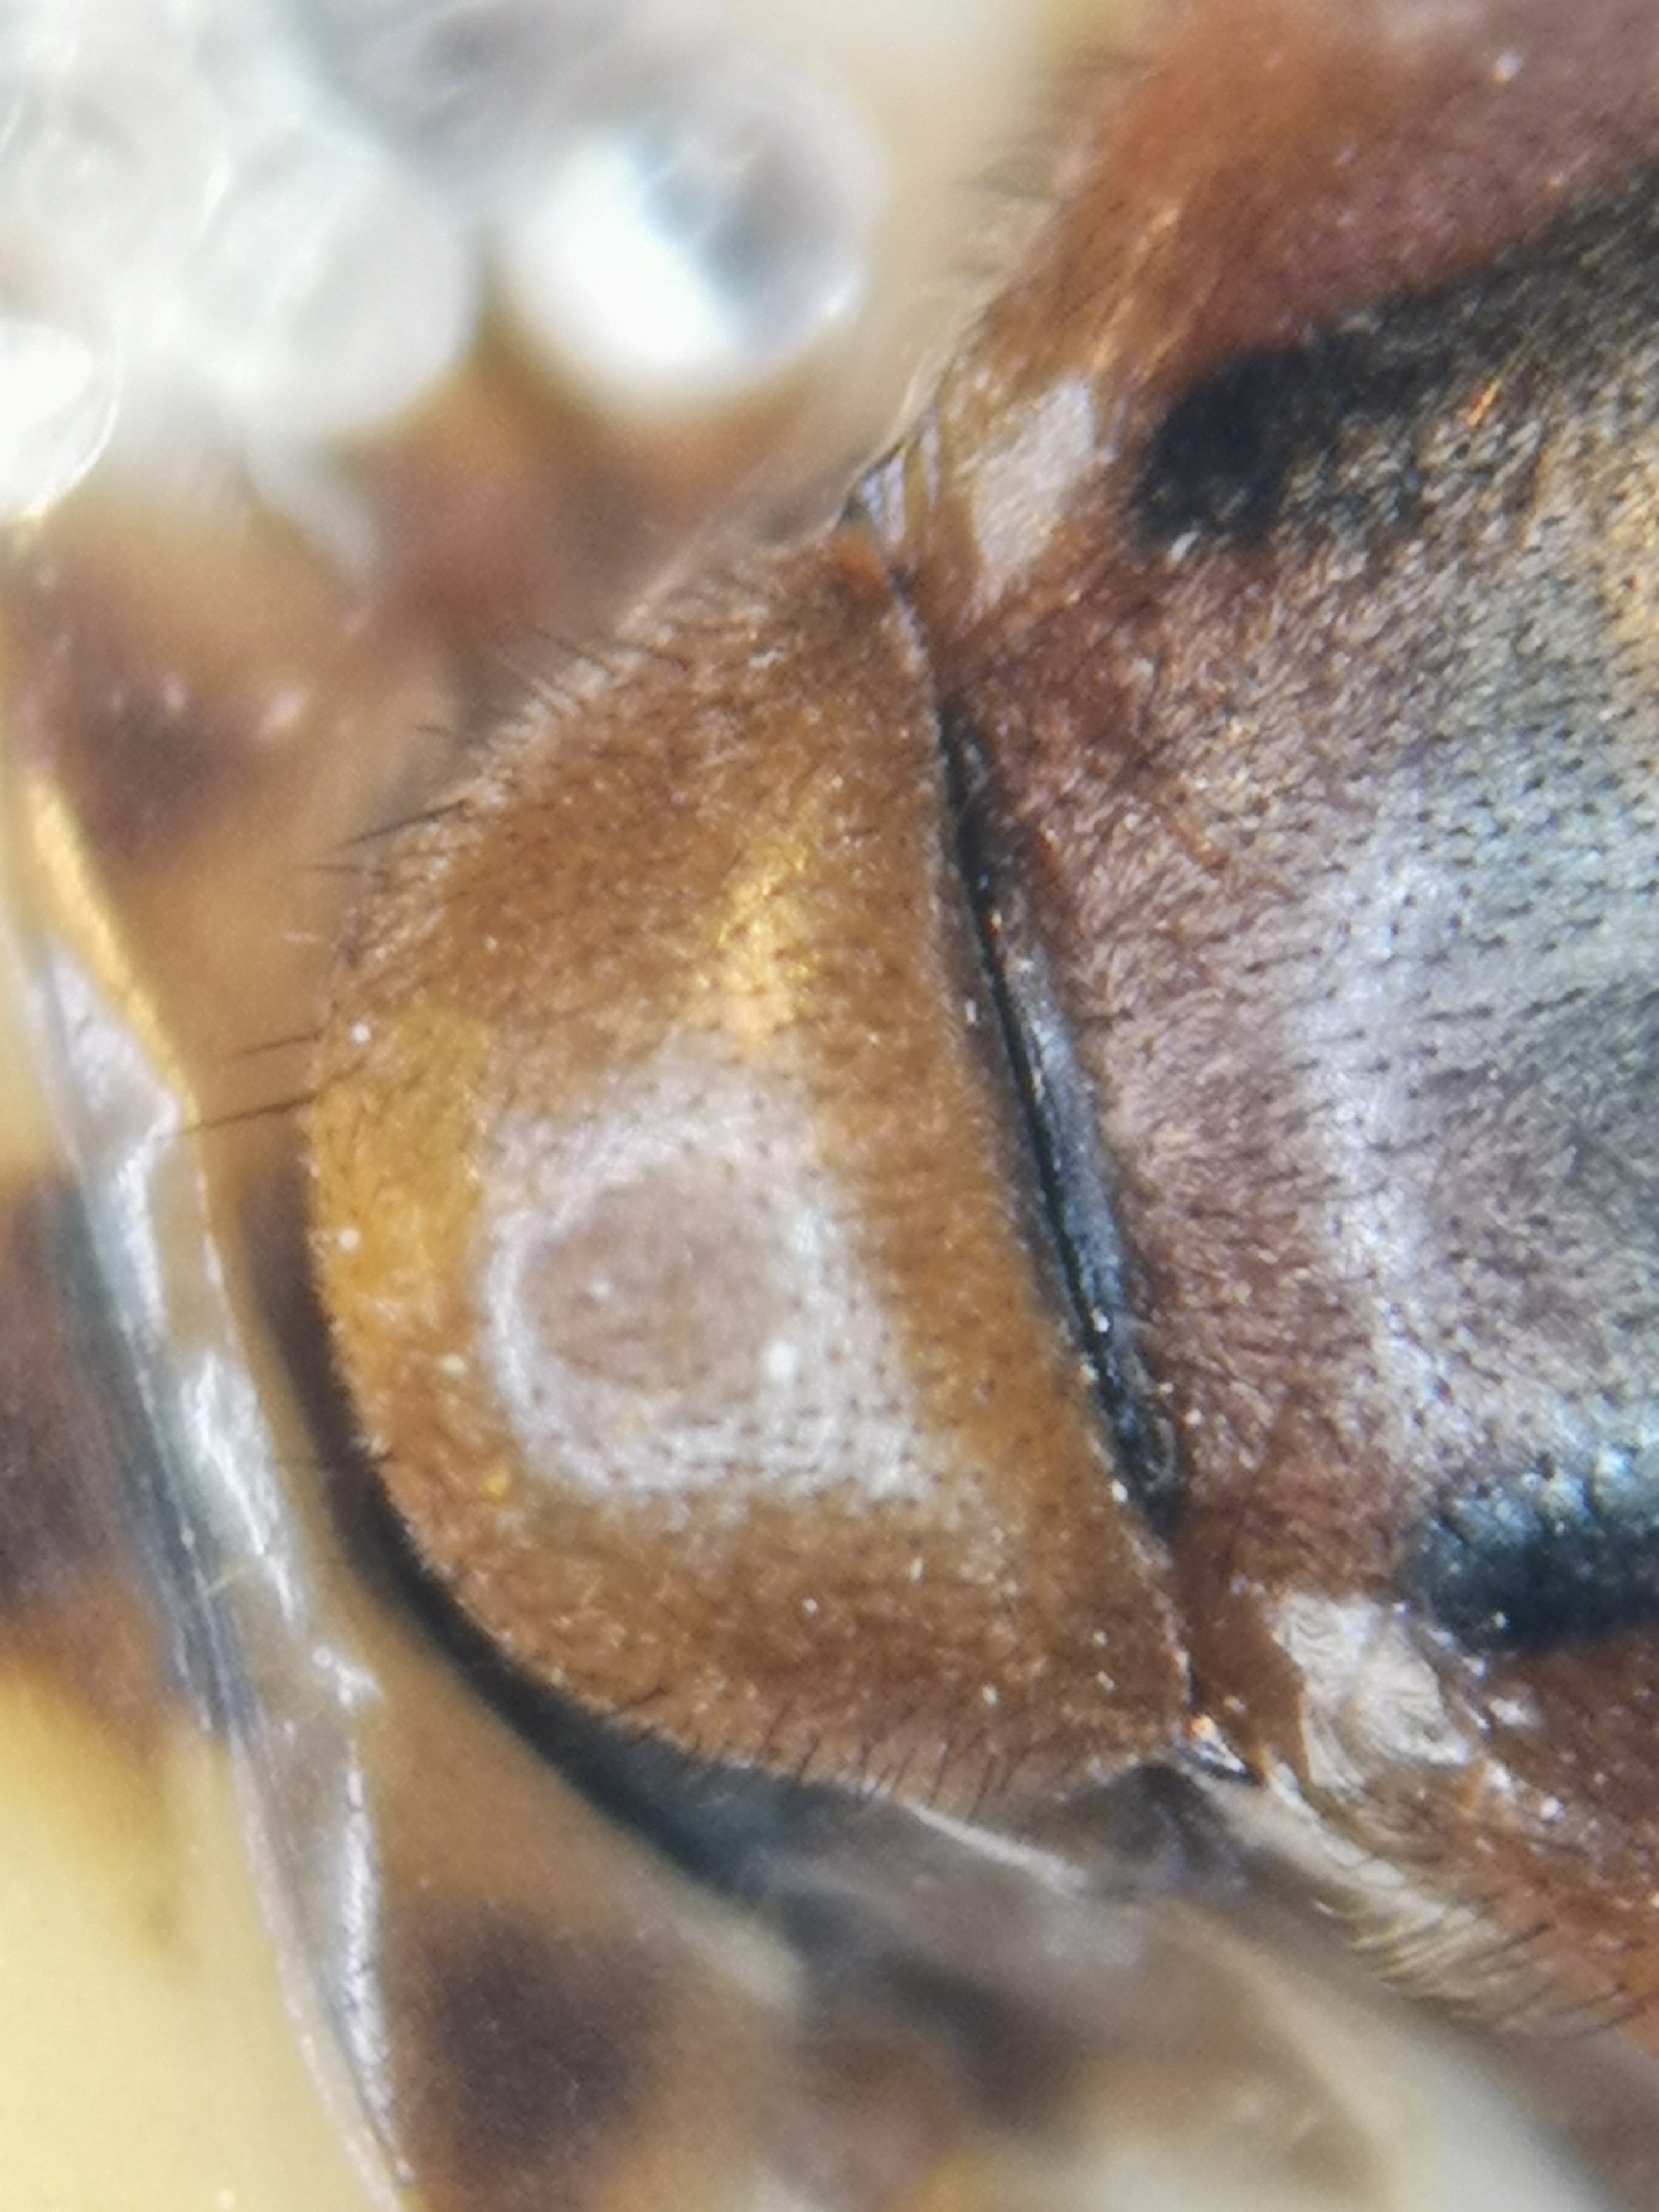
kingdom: Animalia
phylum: Arthropoda
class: Insecta
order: Diptera
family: Syrphidae
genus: Brachyopa
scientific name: Brachyopa dorsata
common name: Nordisk træsaftsvirreflue
